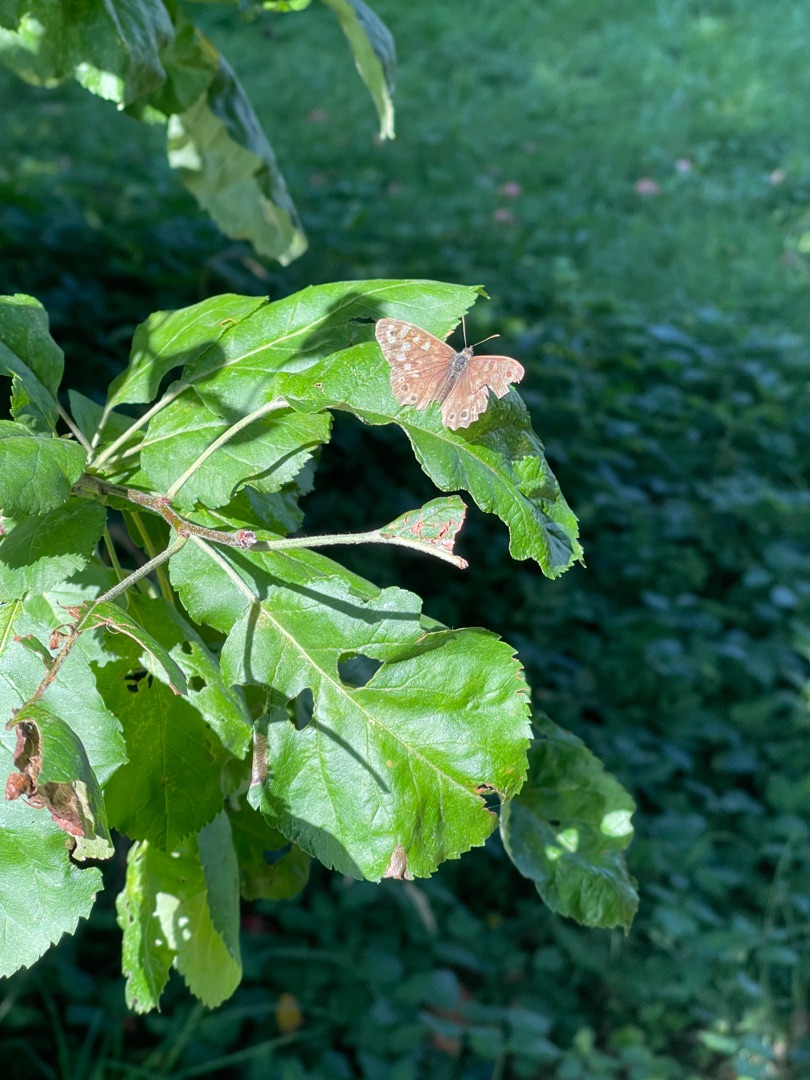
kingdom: Animalia
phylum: Arthropoda
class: Insecta
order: Lepidoptera
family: Nymphalidae
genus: Pararge
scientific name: Pararge aegeria
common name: Skovrandøje
